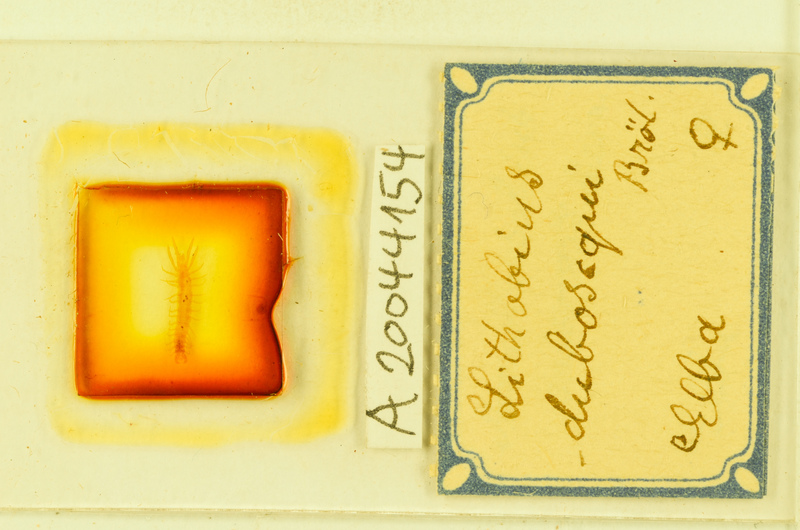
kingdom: Animalia
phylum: Arthropoda
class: Chilopoda
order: Lithobiomorpha
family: Lithobiidae
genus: Lithobius
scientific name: Lithobius microps
